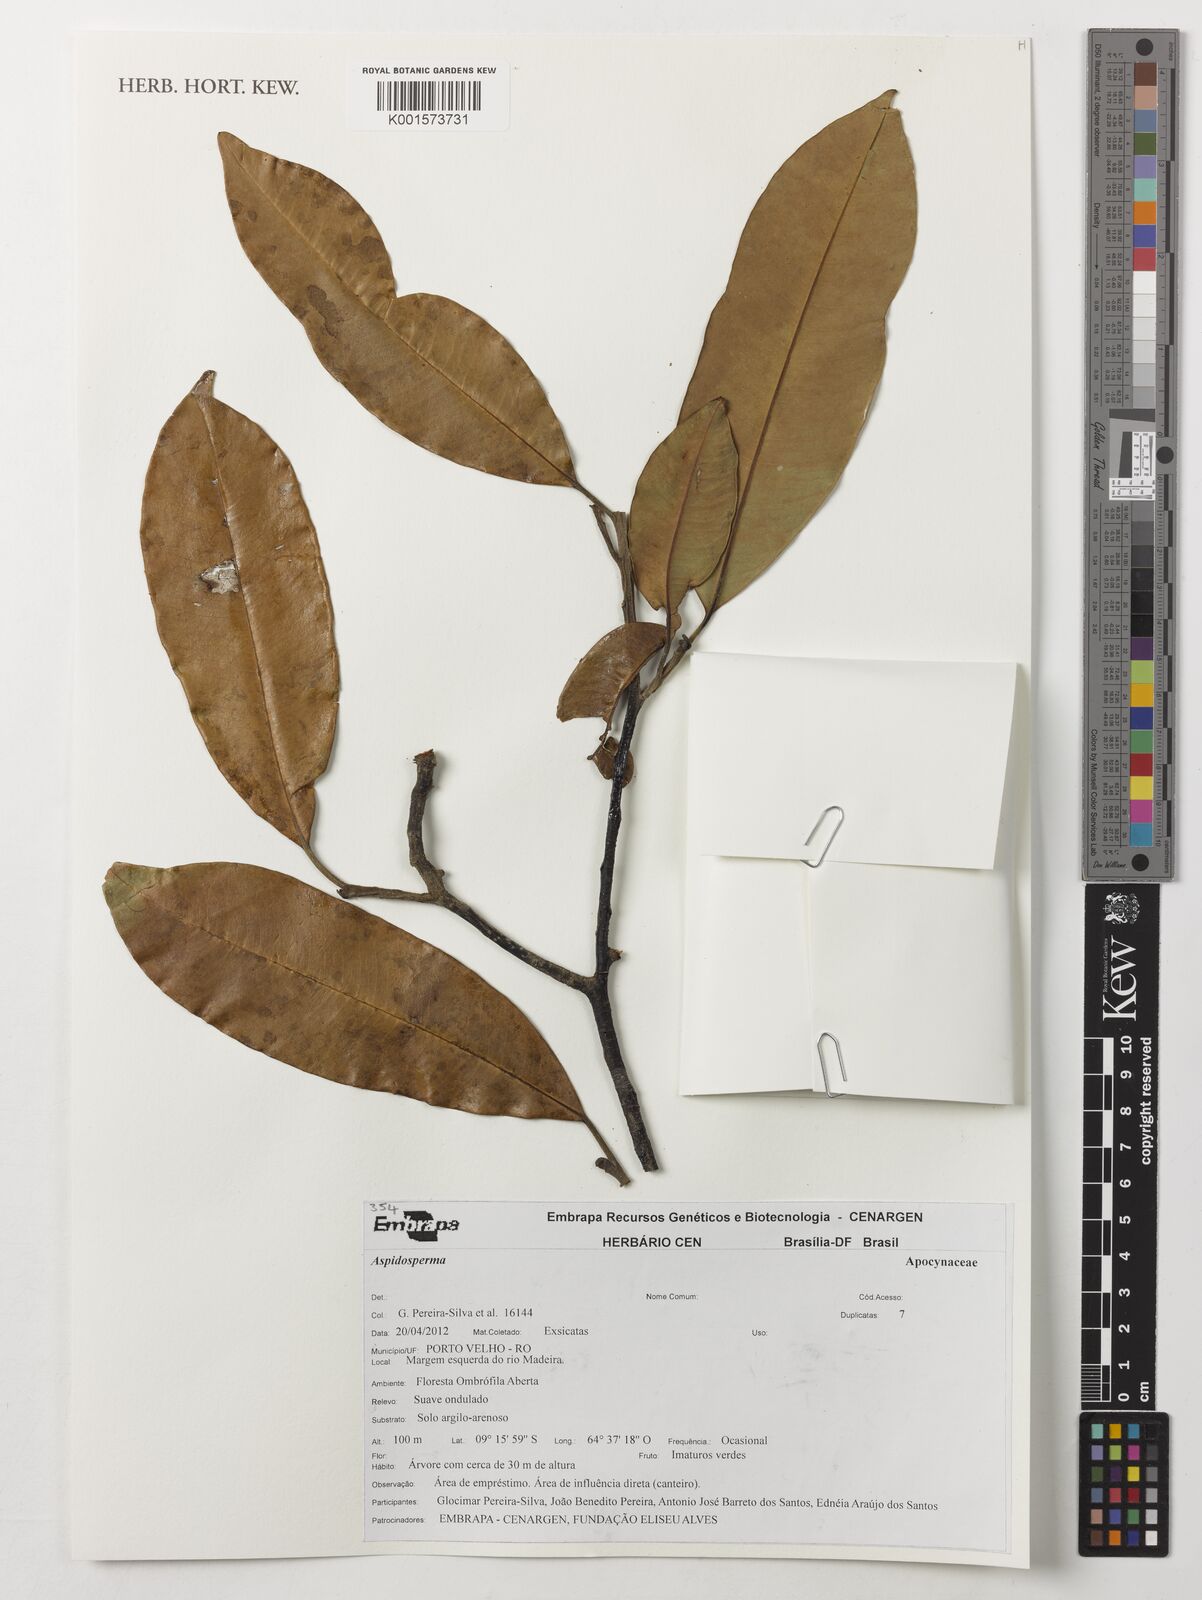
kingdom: Plantae
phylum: Tracheophyta
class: Magnoliopsida
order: Gentianales
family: Apocynaceae
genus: Aspidosperma
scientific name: Aspidosperma
